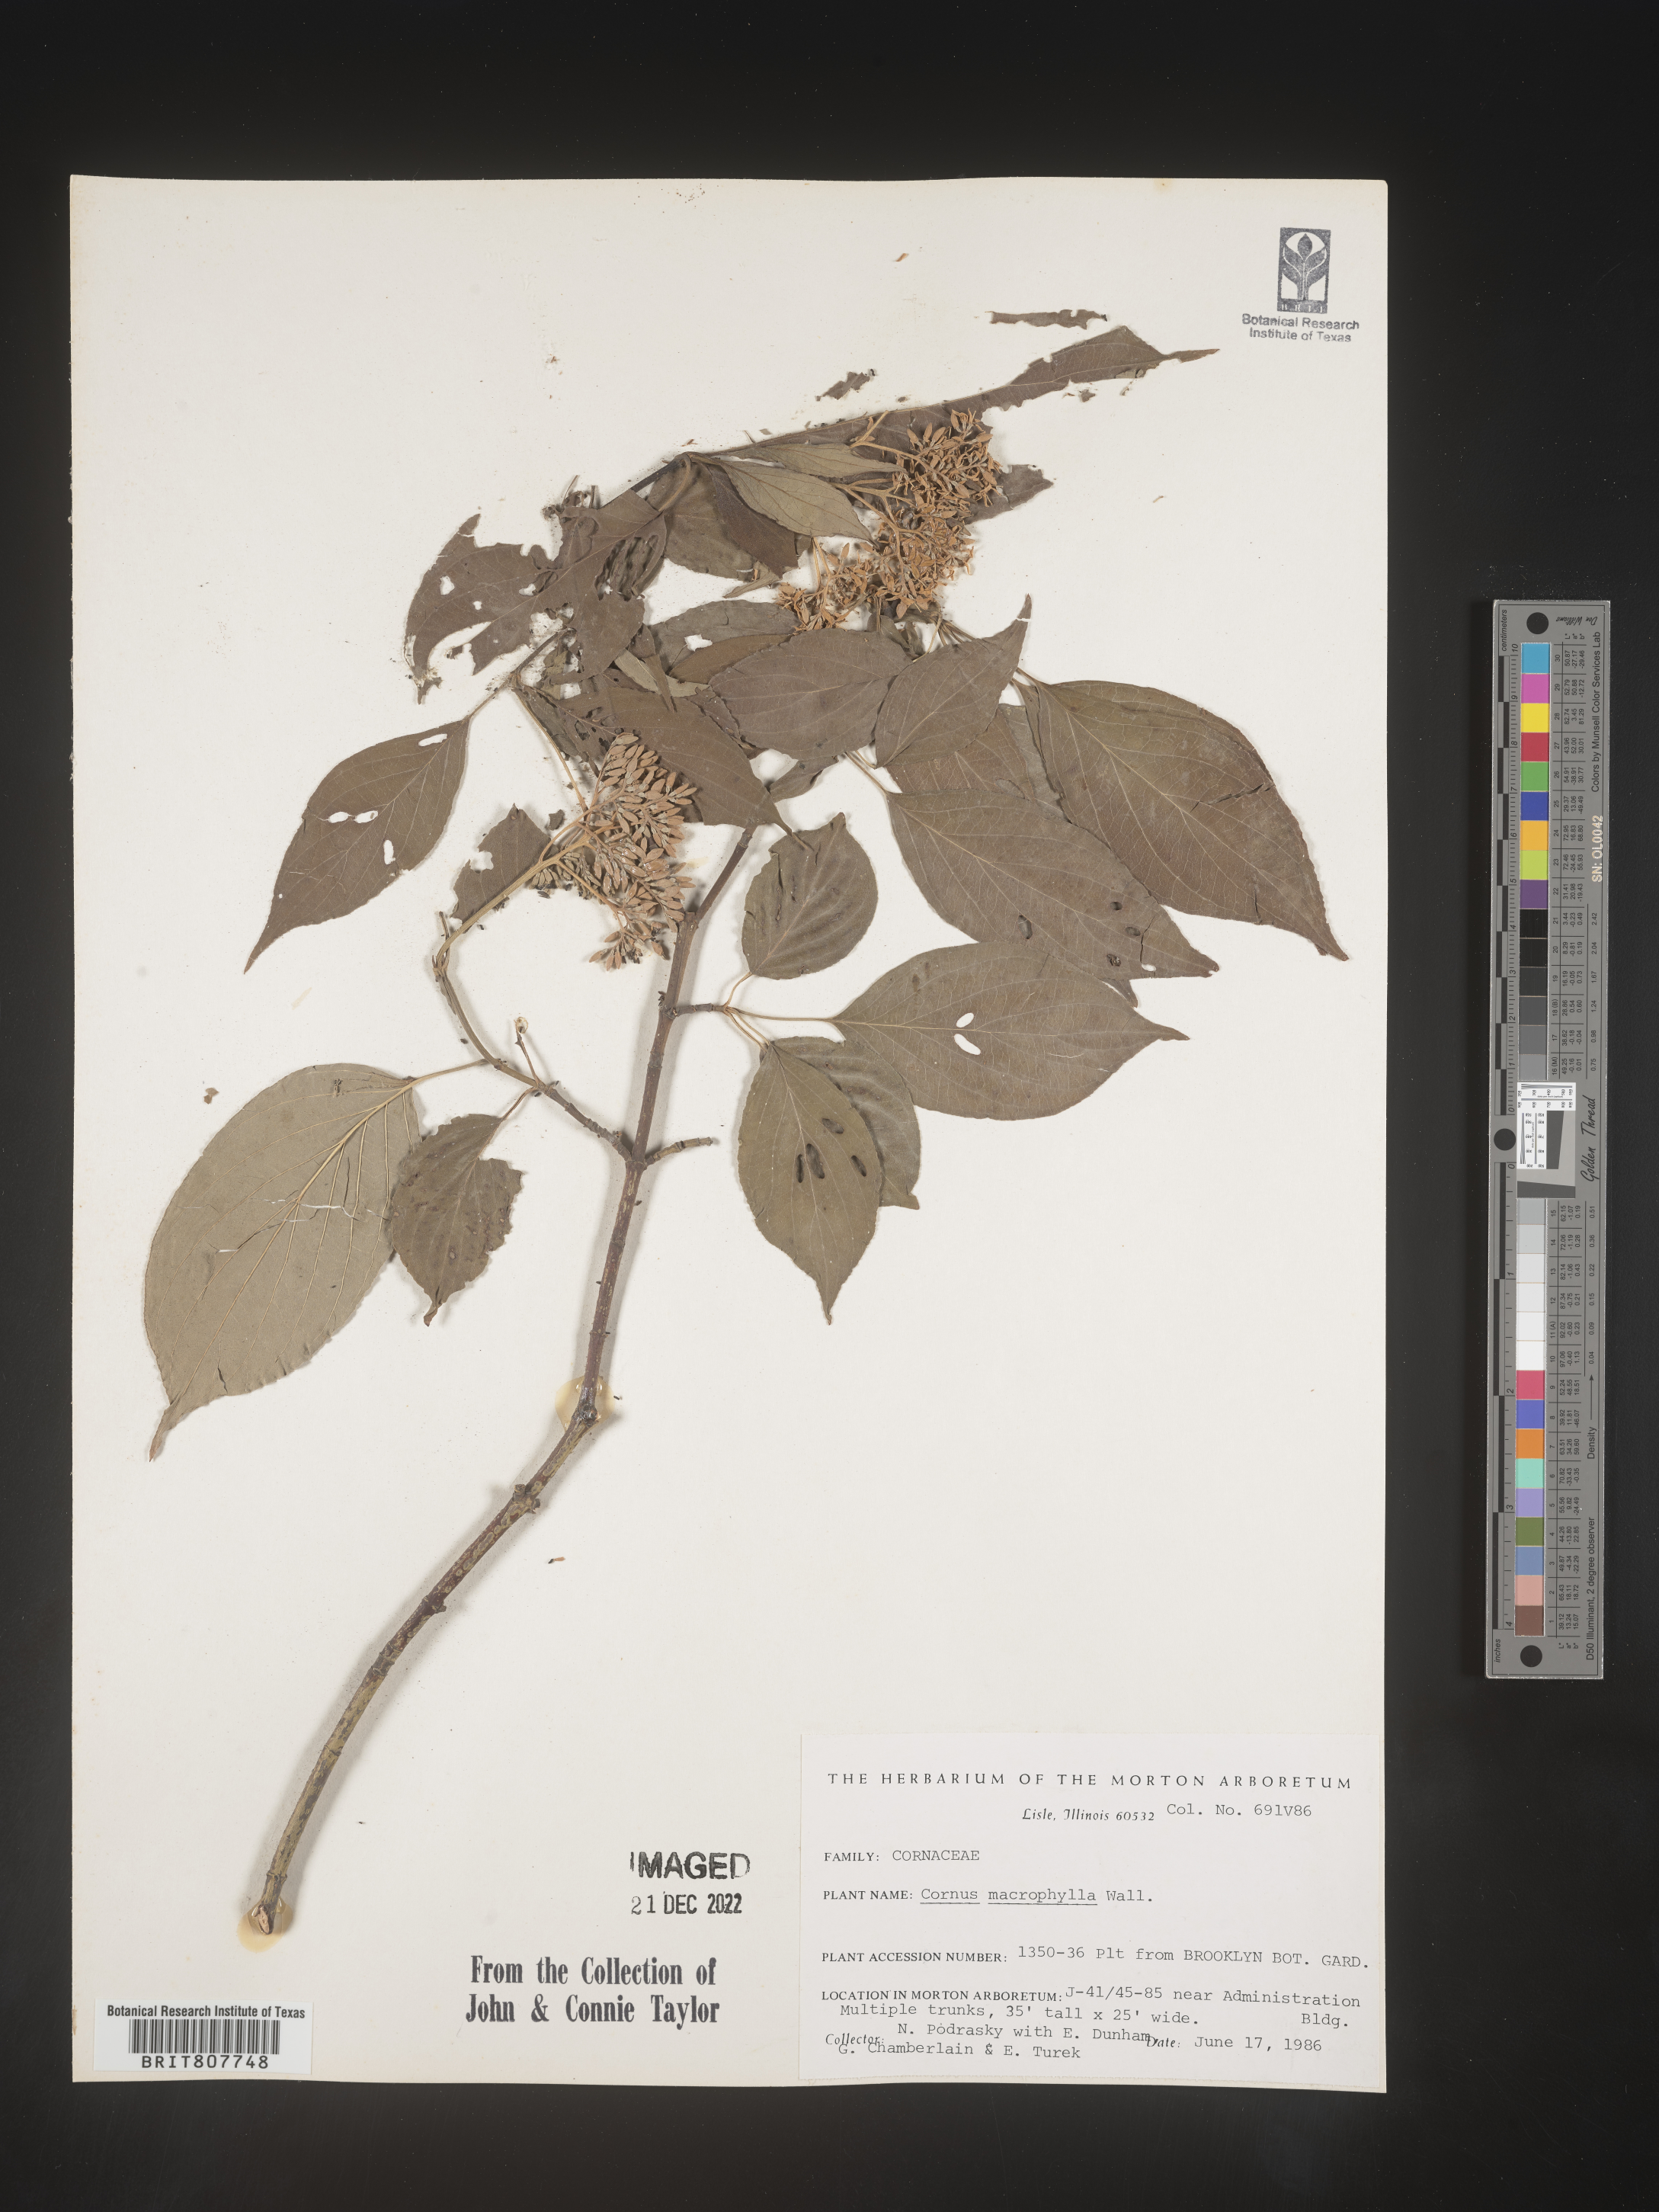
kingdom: Plantae
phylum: Tracheophyta
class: Magnoliopsida
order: Cornales
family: Cornaceae
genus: Cornus
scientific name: Cornus
